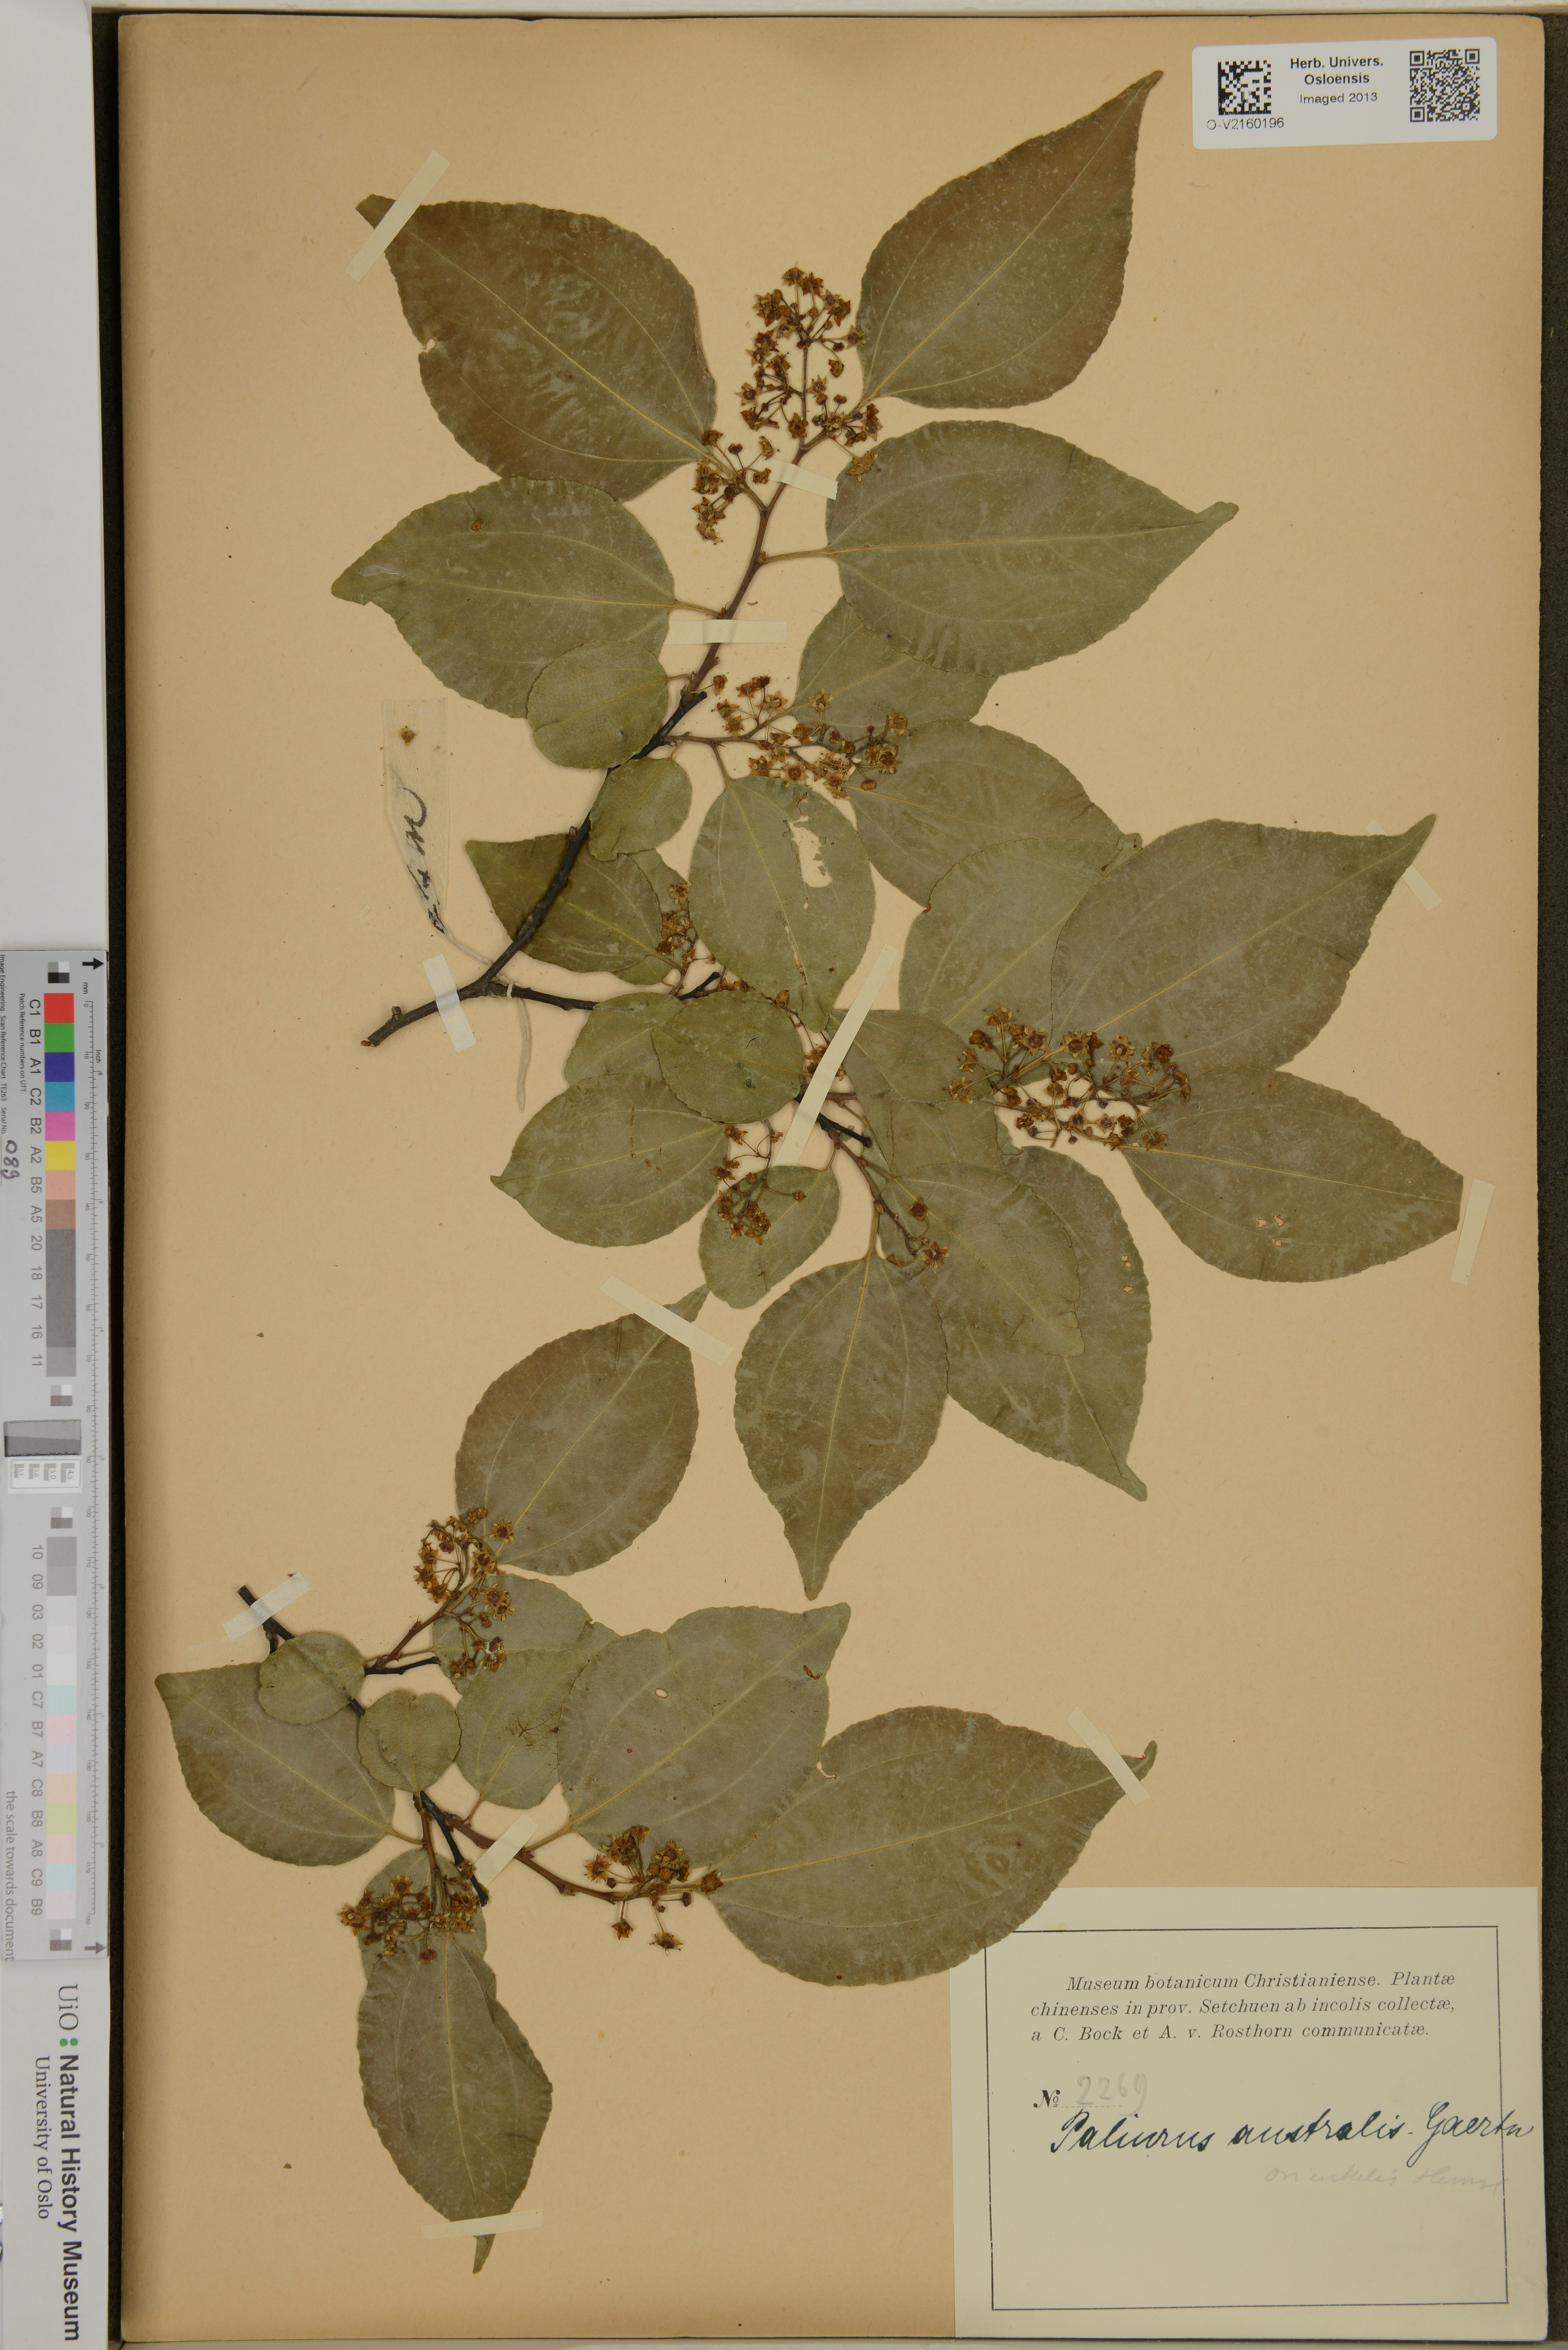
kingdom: Plantae
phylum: Tracheophyta
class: Magnoliopsida
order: Rosales
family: Rhamnaceae
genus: Paliurus
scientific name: Paliurus spina-christi
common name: Jeruselem thorn
